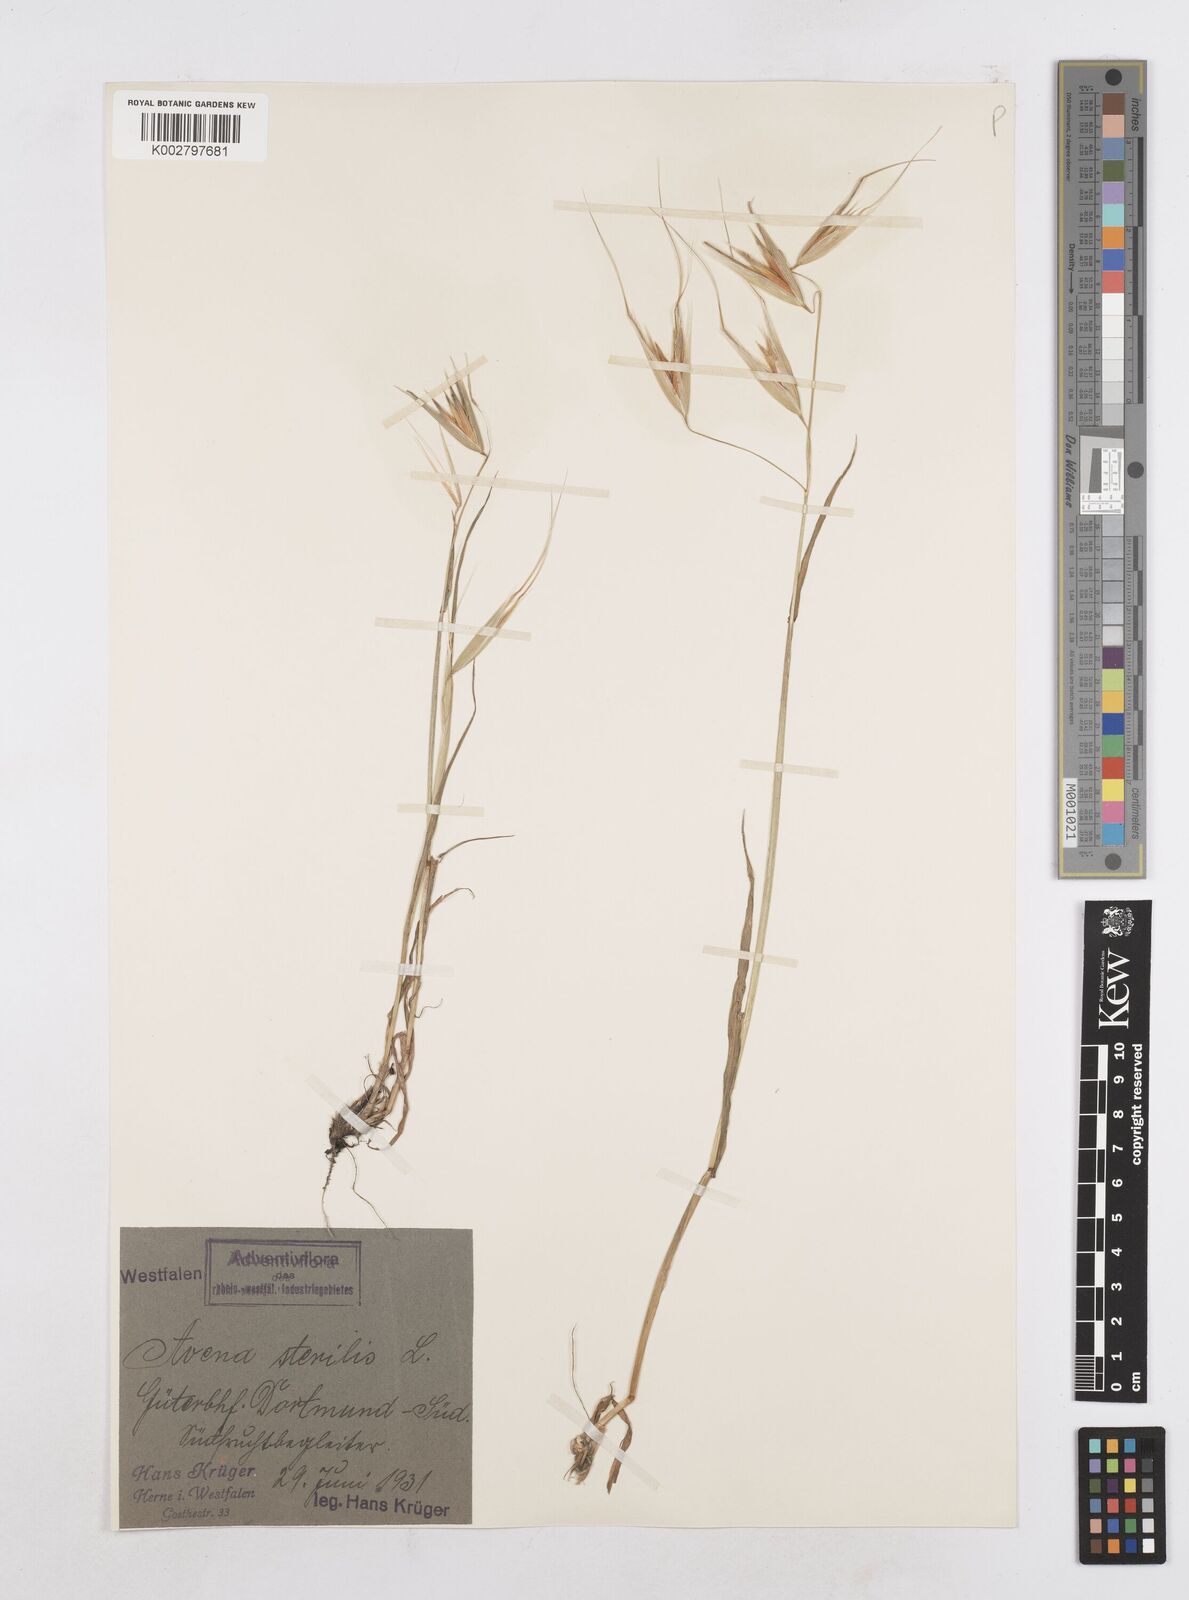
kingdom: Plantae
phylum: Tracheophyta
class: Liliopsida
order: Poales
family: Poaceae
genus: Avena
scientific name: Avena sterilis
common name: Animated oat
